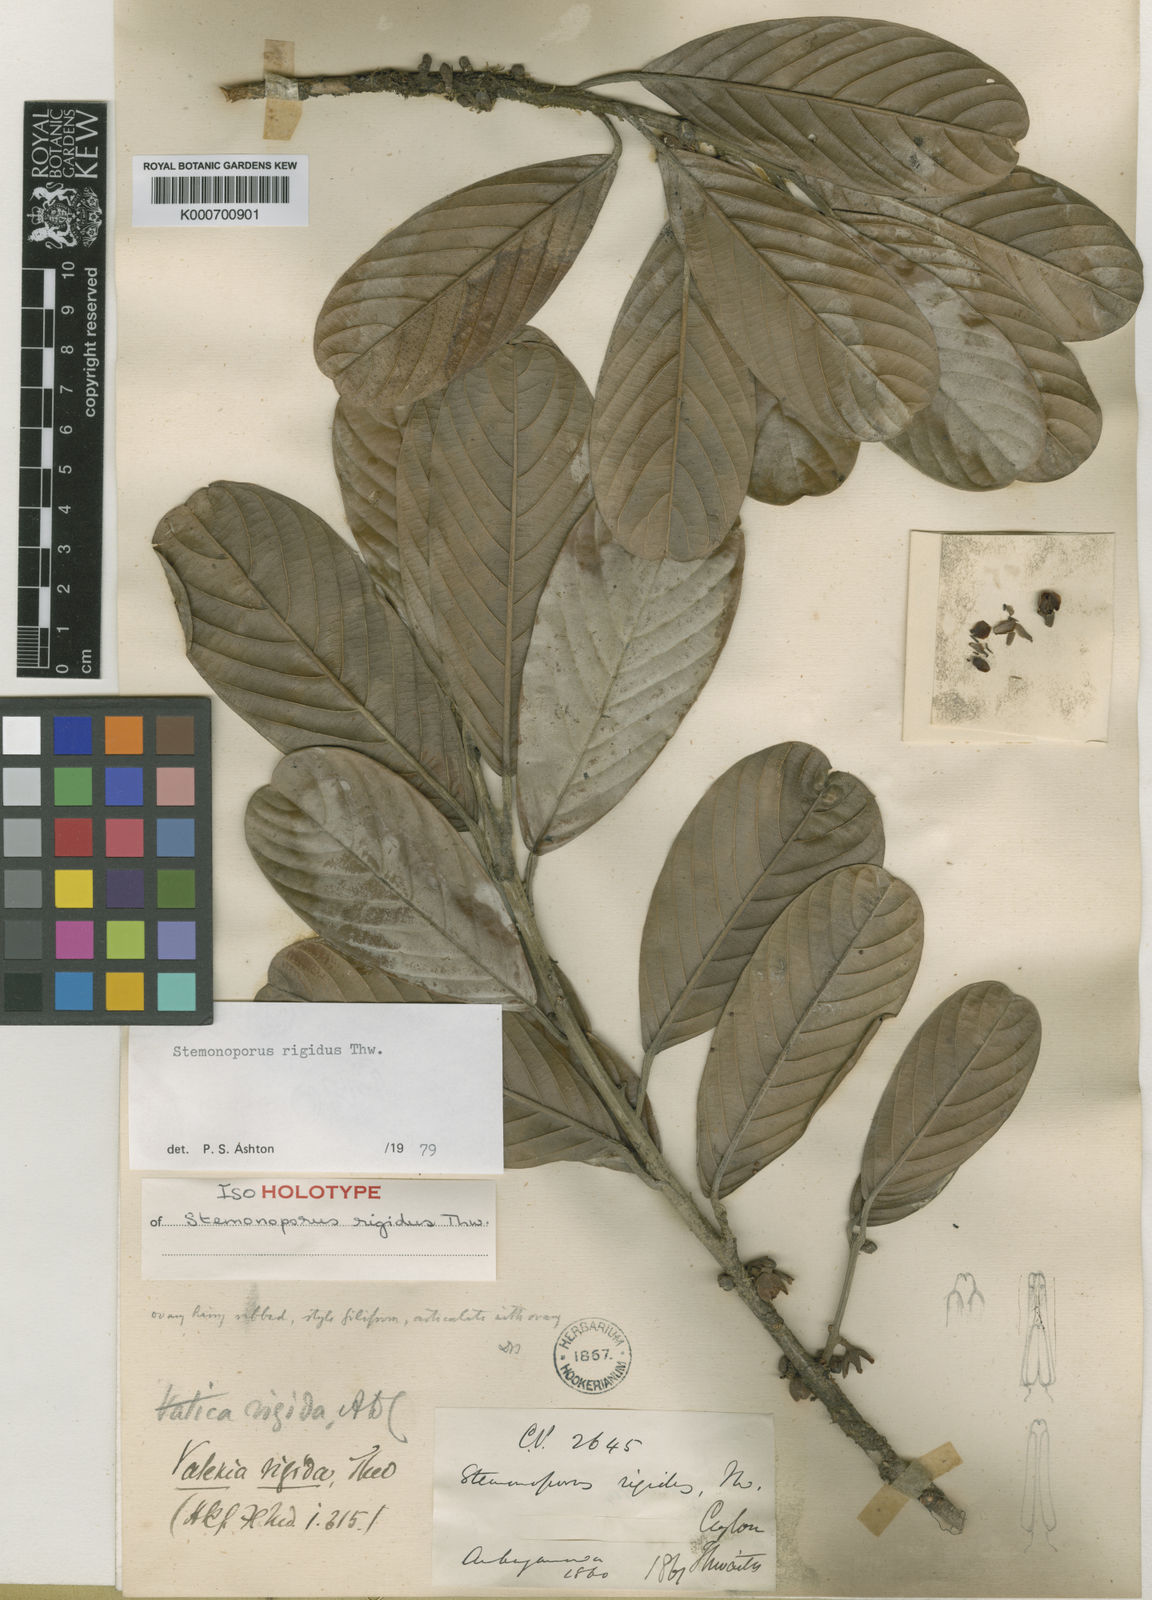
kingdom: Plantae
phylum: Tracheophyta
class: Magnoliopsida
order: Malvales
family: Dipterocarpaceae
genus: Stemonoporus
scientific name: Stemonoporus rigidus
